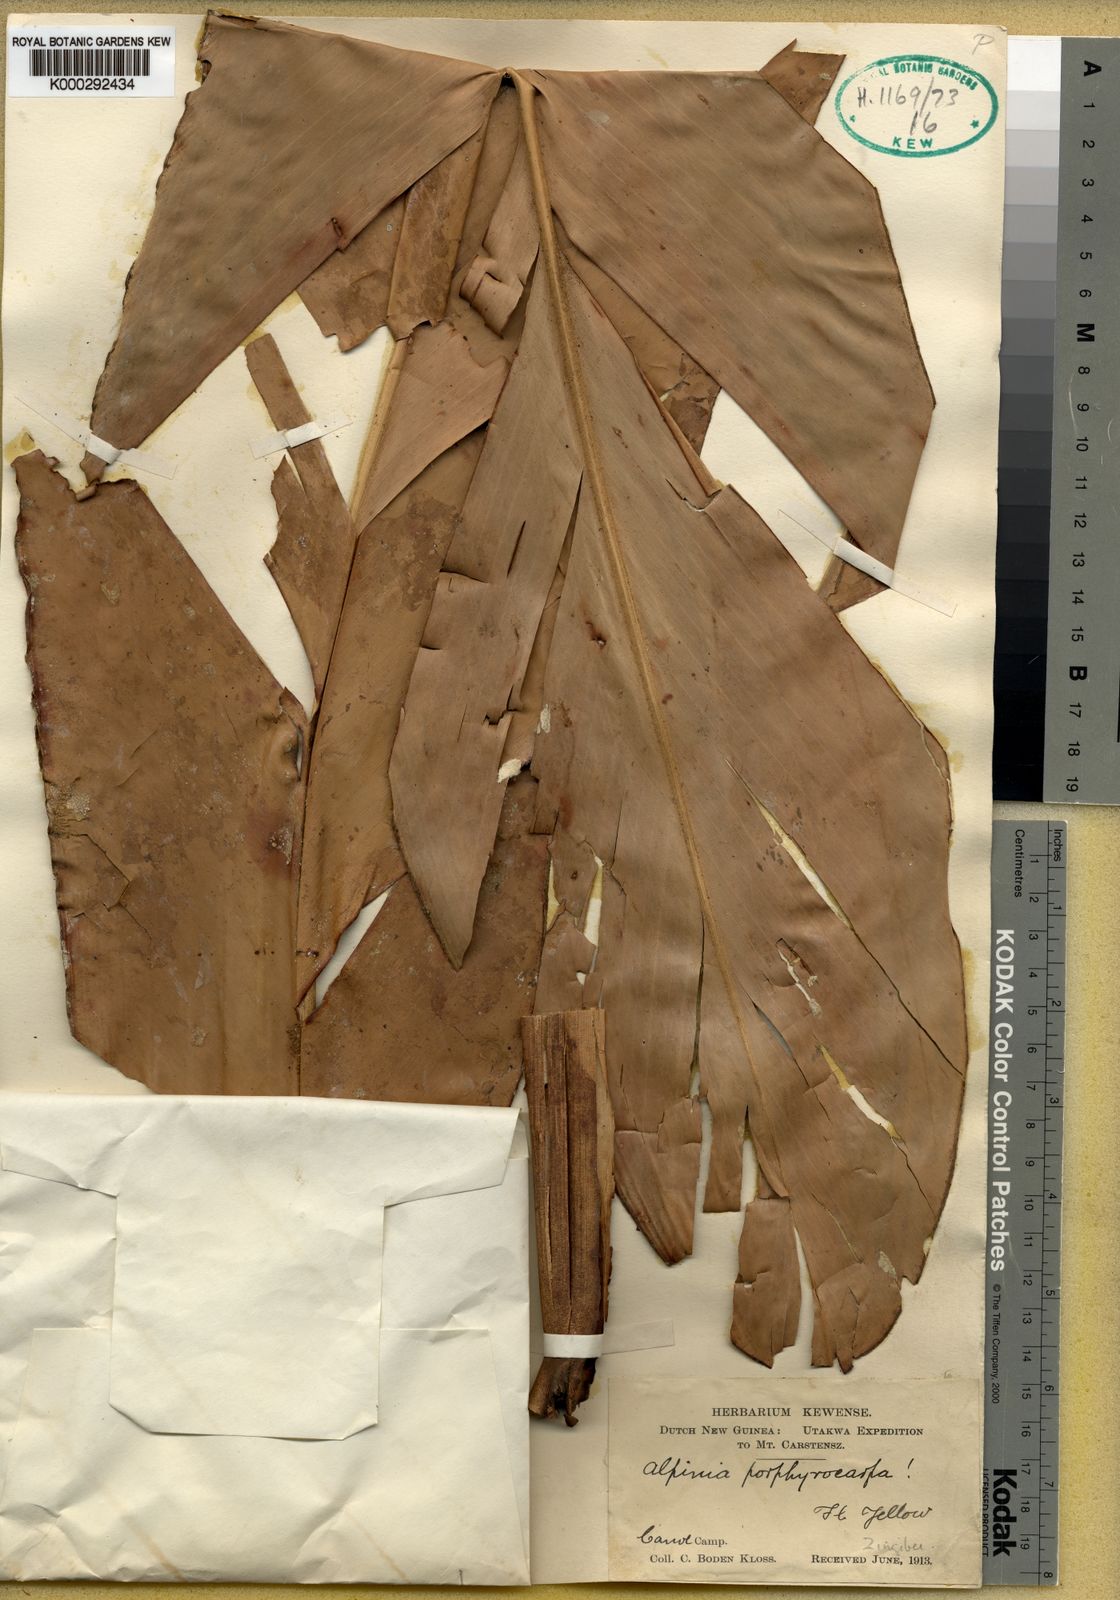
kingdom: Plantae
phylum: Tracheophyta
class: Liliopsida
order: Zingiberales
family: Zingiberaceae
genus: Alpinia
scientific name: Alpinia
